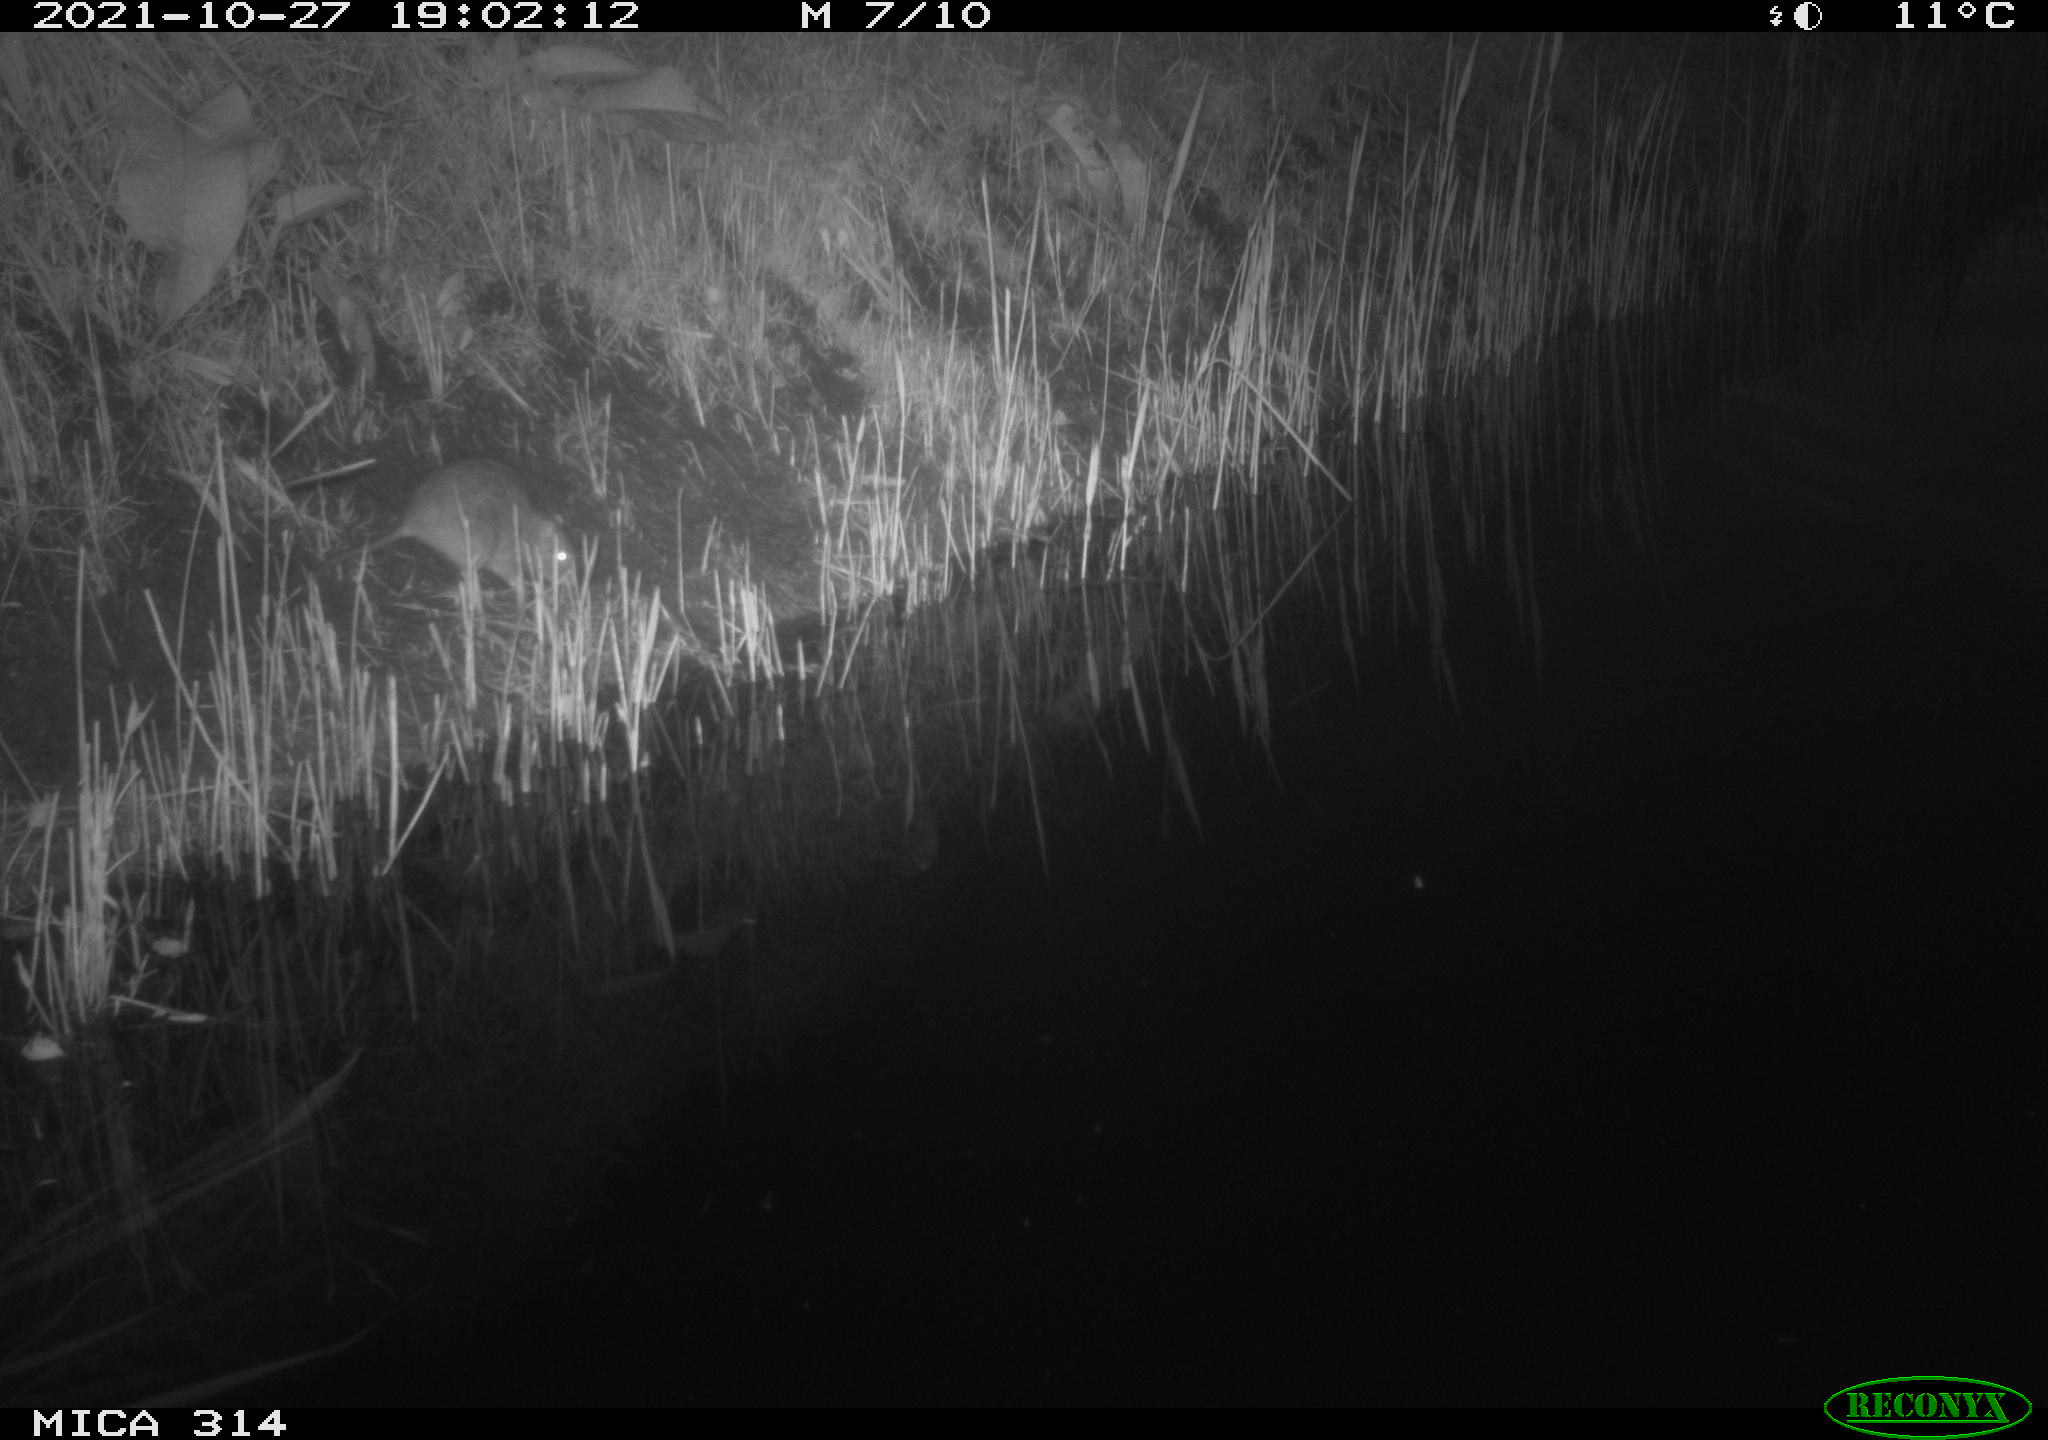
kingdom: Animalia
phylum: Chordata
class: Mammalia
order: Rodentia
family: Muridae
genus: Rattus
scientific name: Rattus norvegicus
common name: Brown rat
